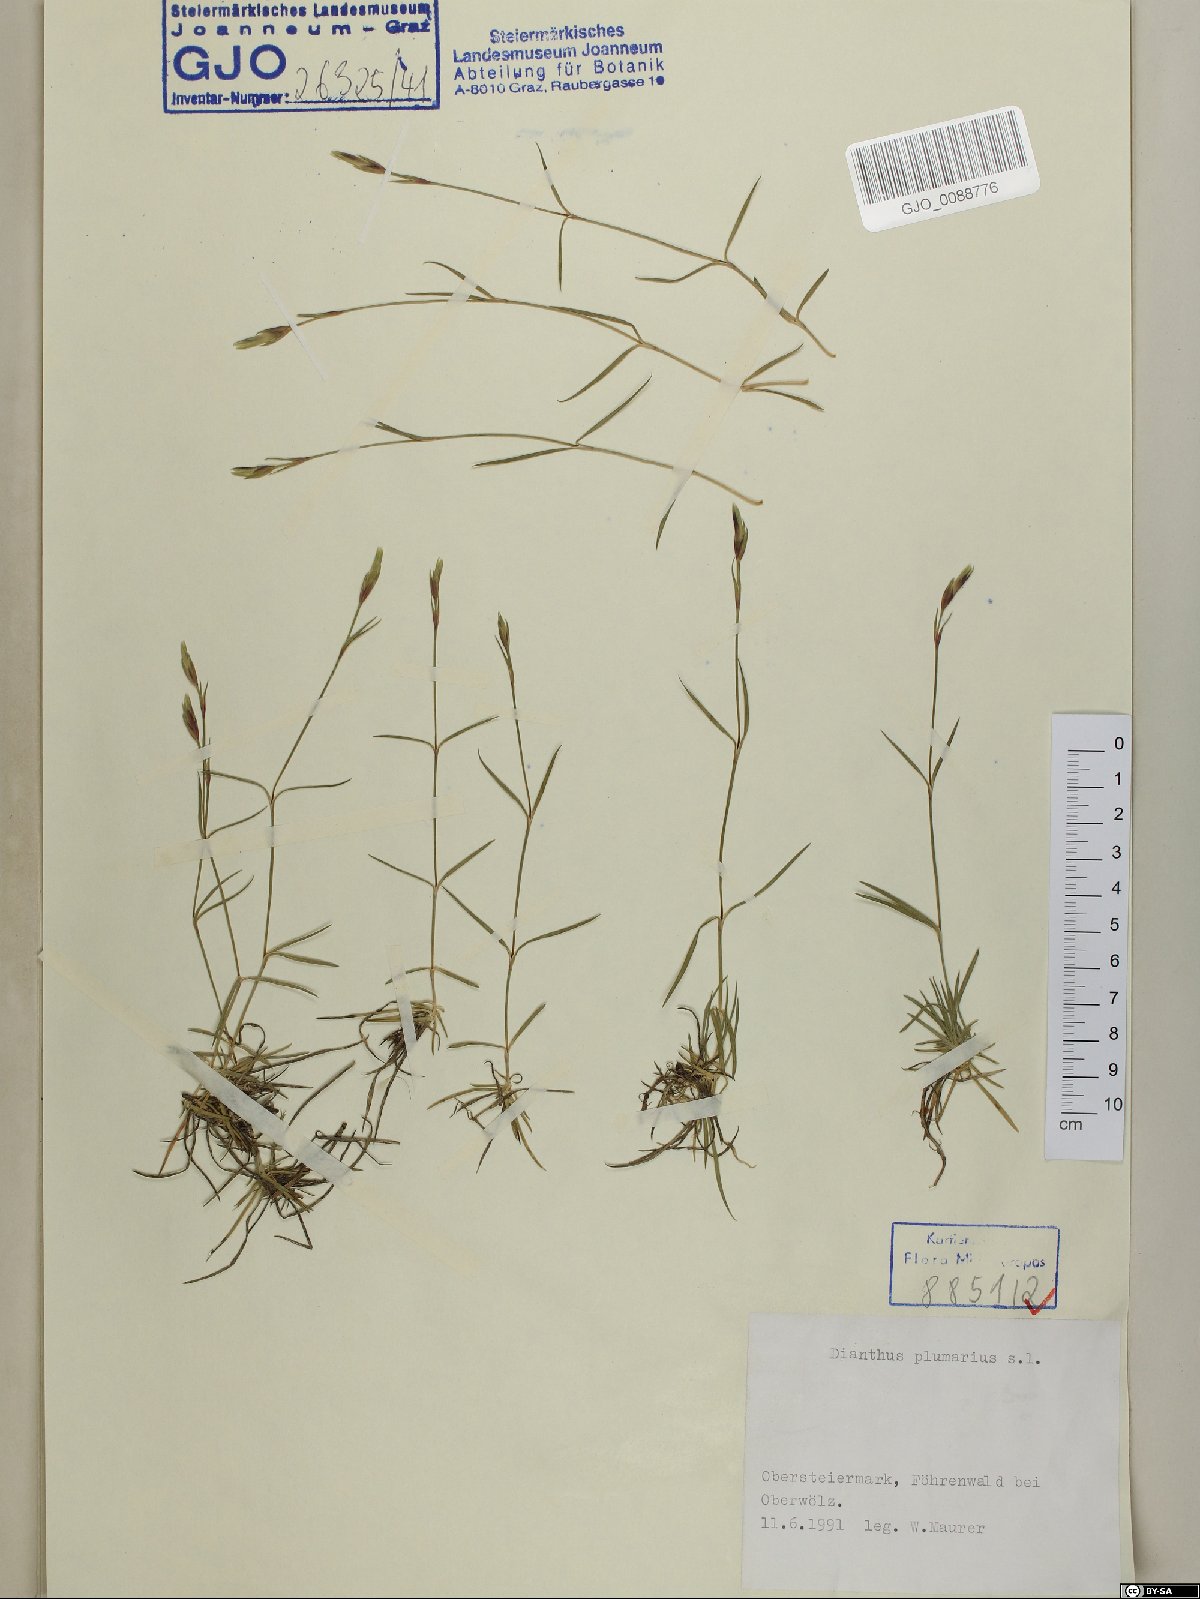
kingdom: Plantae
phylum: Tracheophyta
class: Magnoliopsida
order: Caryophyllales
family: Caryophyllaceae
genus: Dianthus
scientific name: Dianthus plumarius
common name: Pink
